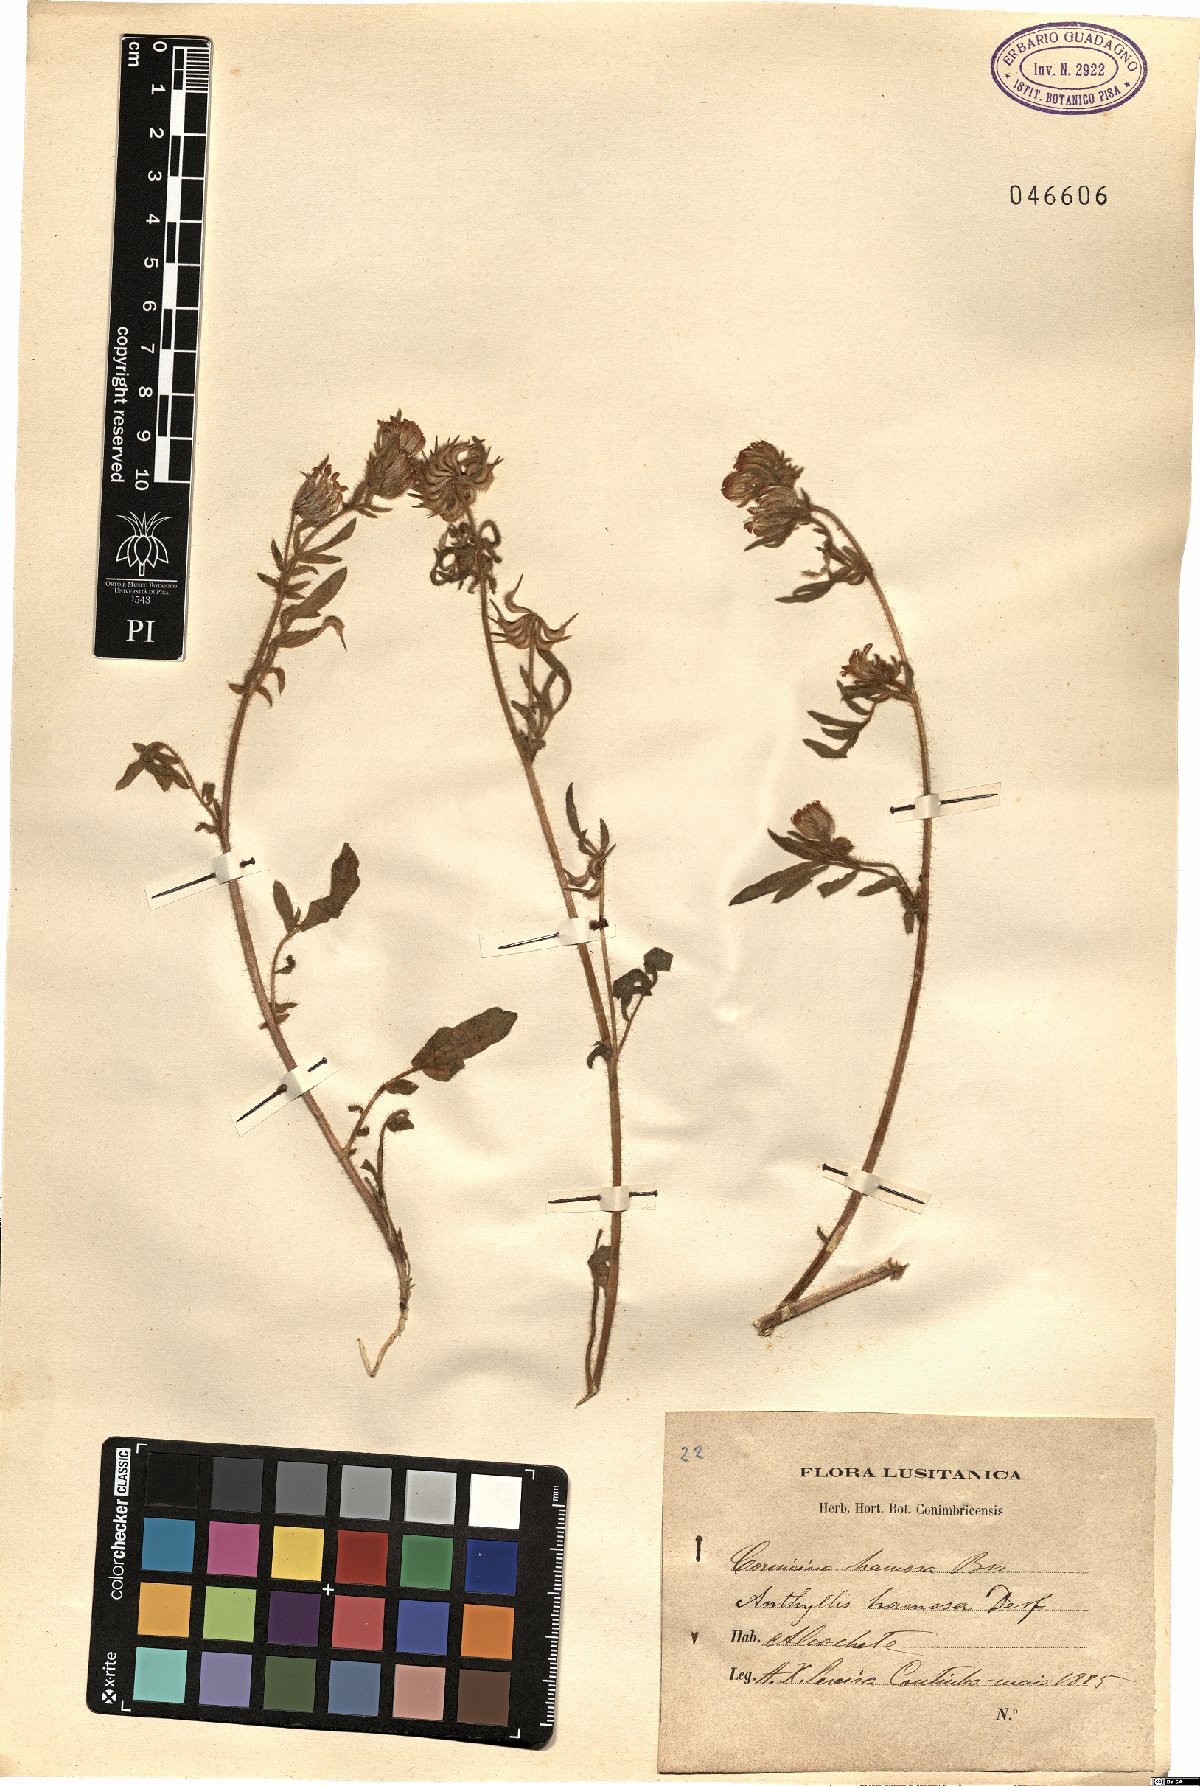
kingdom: Plantae
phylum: Tracheophyta
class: Magnoliopsida
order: Fabales
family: Fabaceae
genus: Anthyllis
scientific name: Anthyllis hamosa
